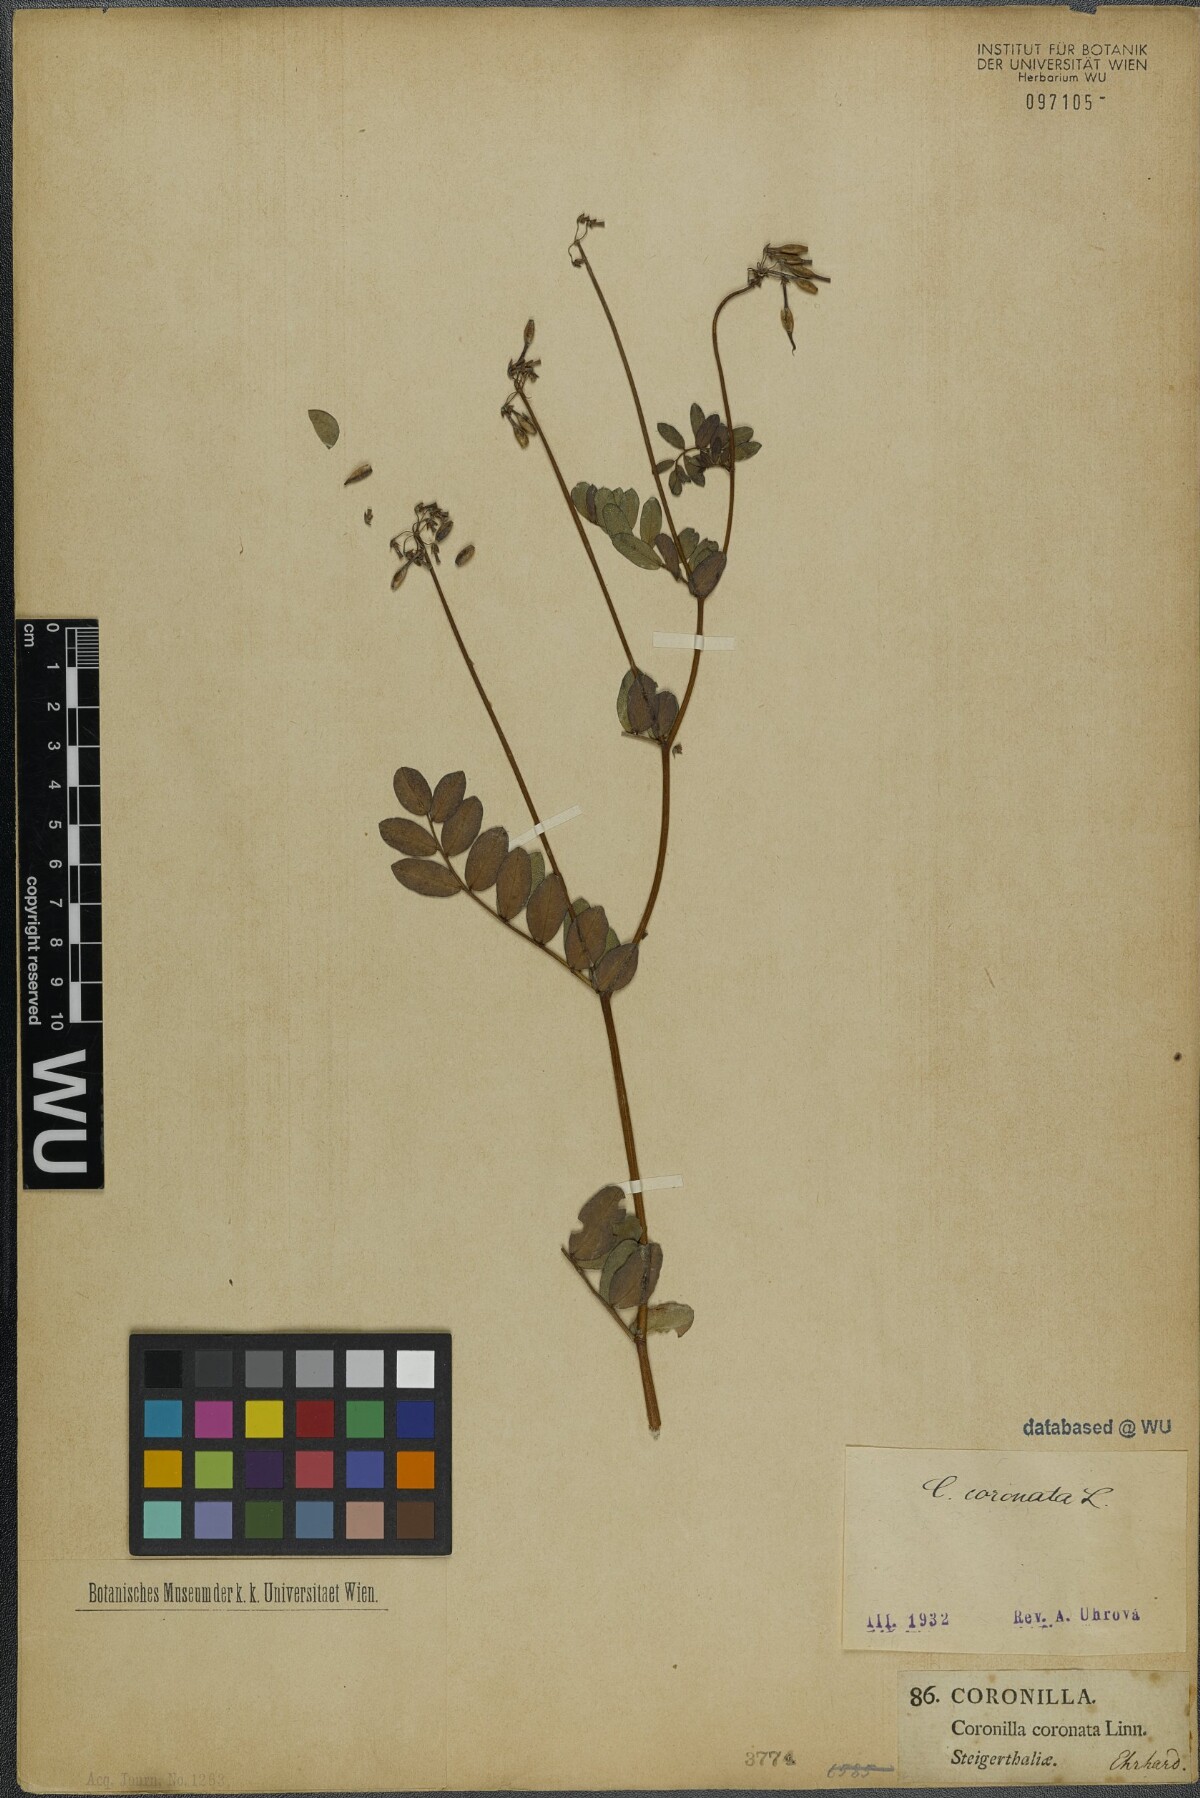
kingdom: Plantae
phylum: Tracheophyta
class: Magnoliopsida
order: Fabales
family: Fabaceae
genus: Coronilla
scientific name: Coronilla coronata
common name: Scorpion-vetch
